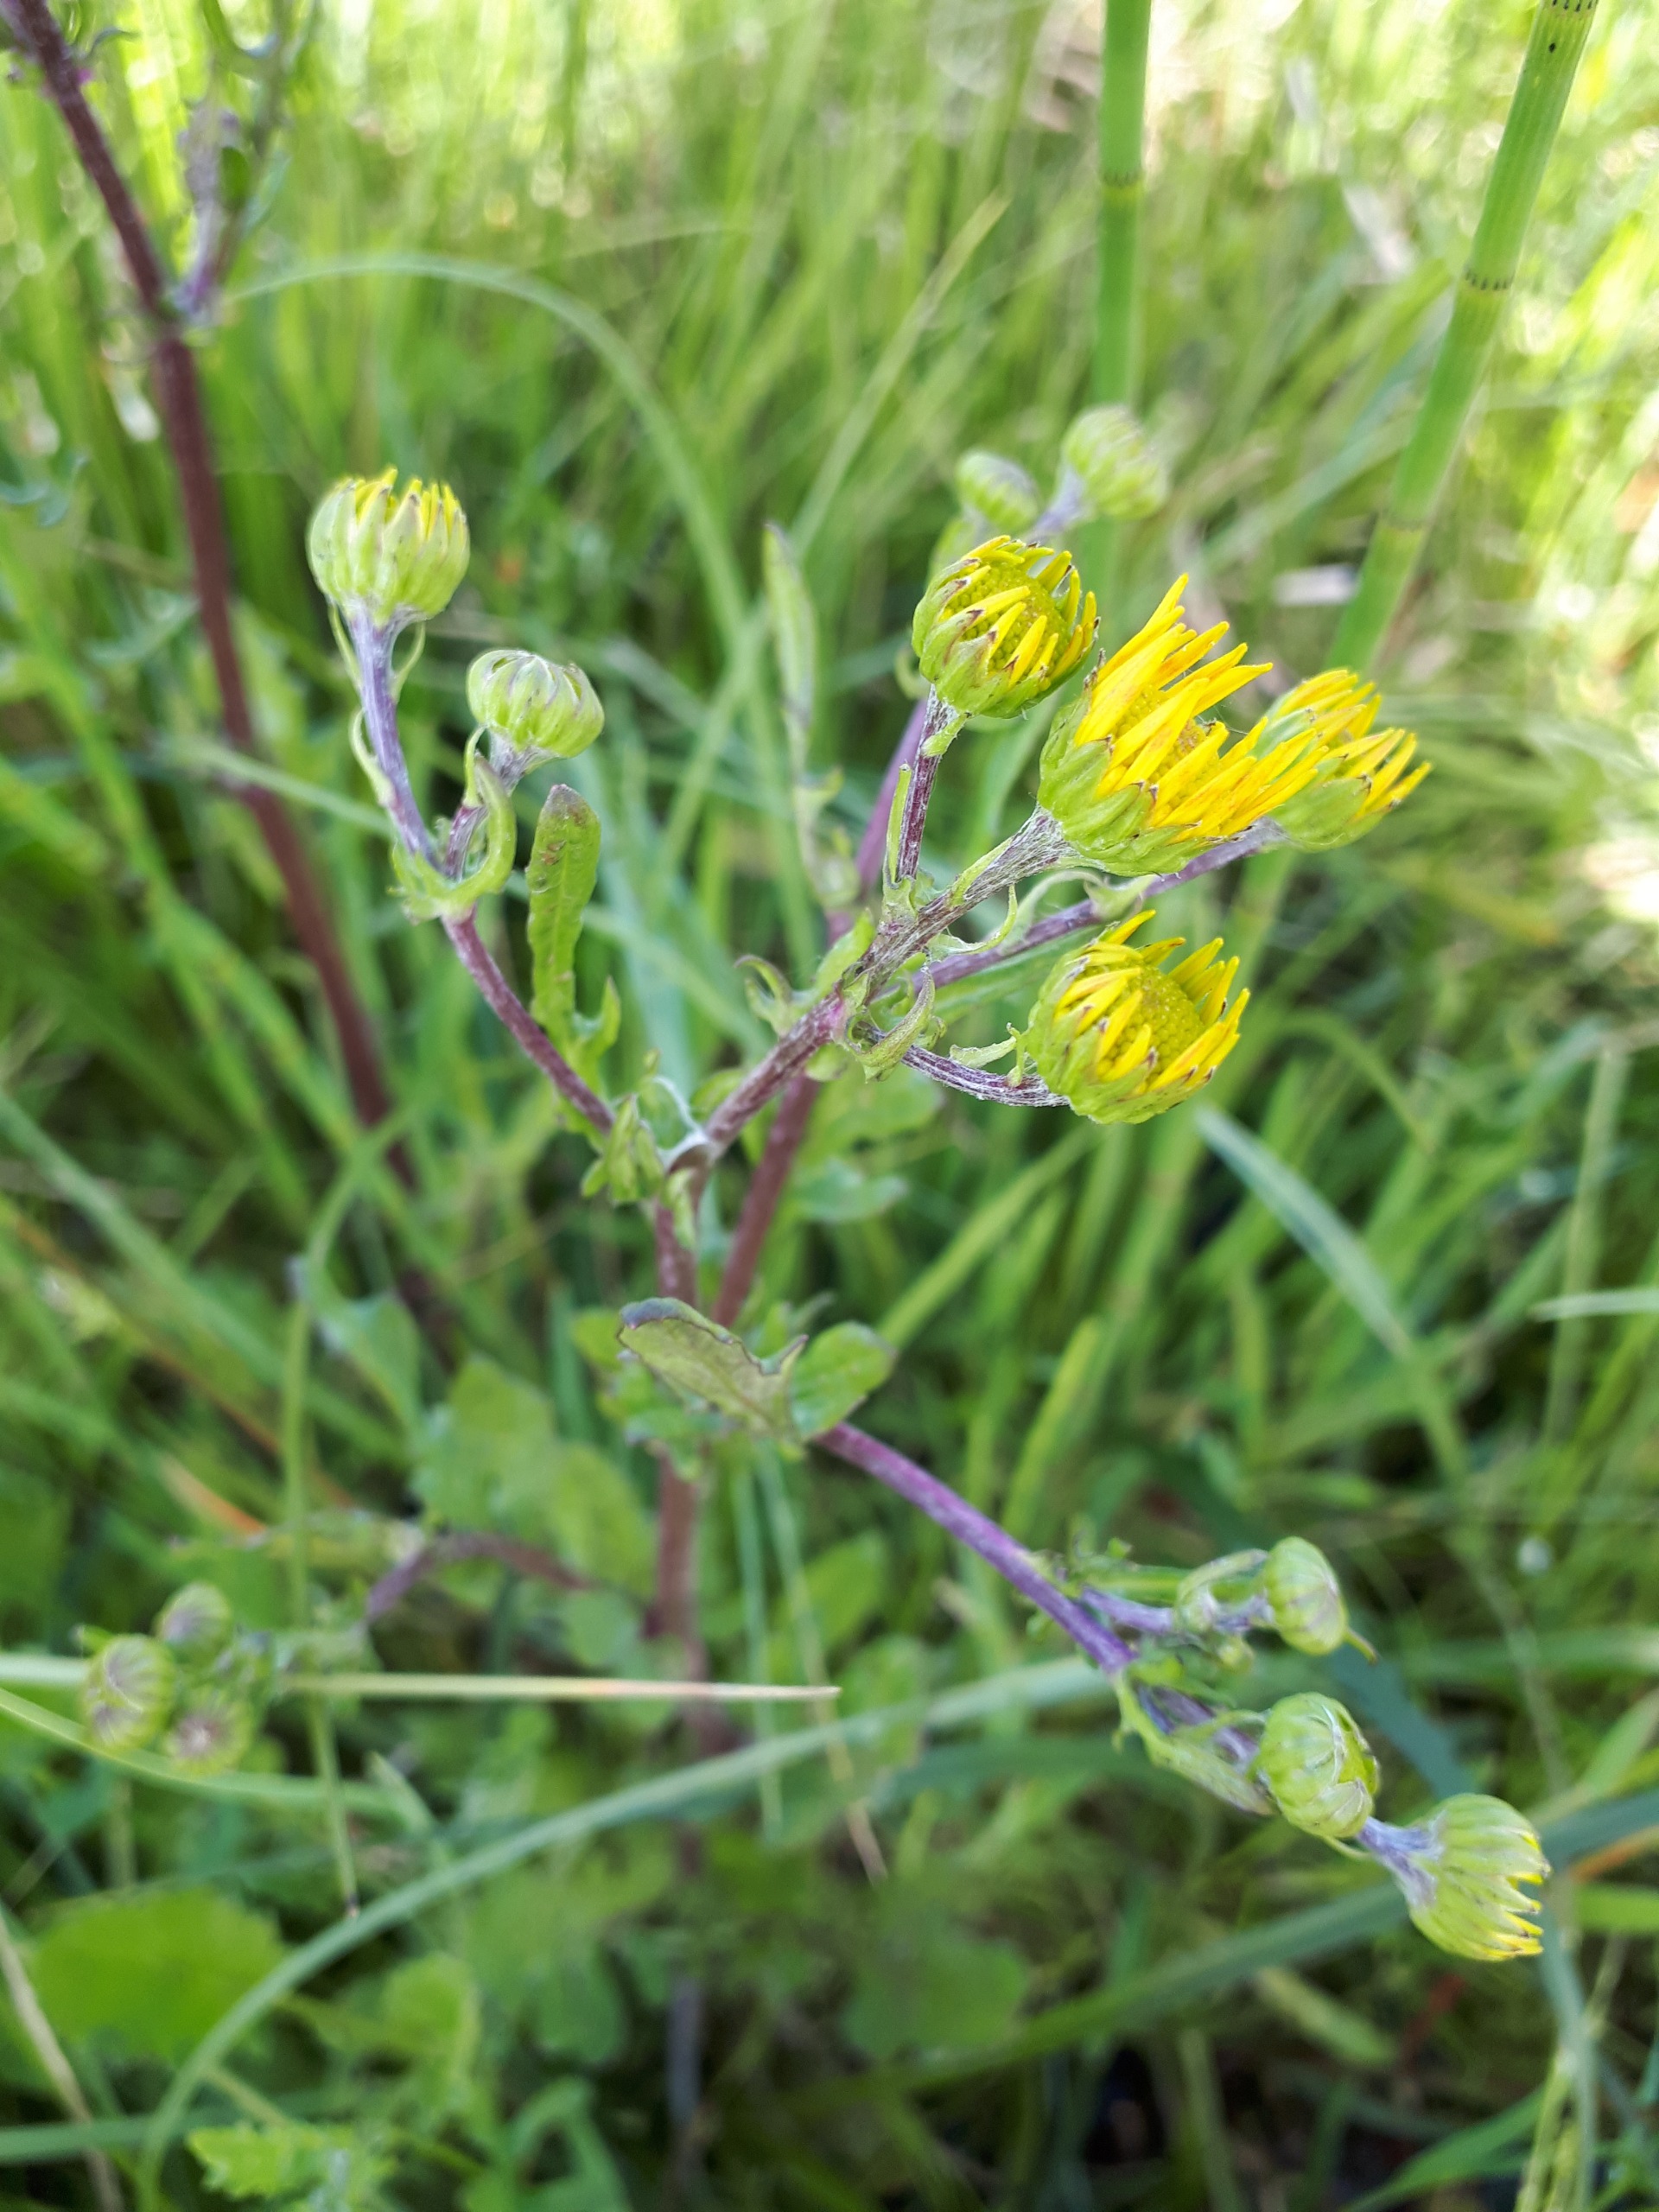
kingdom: Plantae
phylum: Tracheophyta
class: Magnoliopsida
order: Asterales
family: Asteraceae
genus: Jacobaea
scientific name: Jacobaea aquatica
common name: Vand-brandbæger
